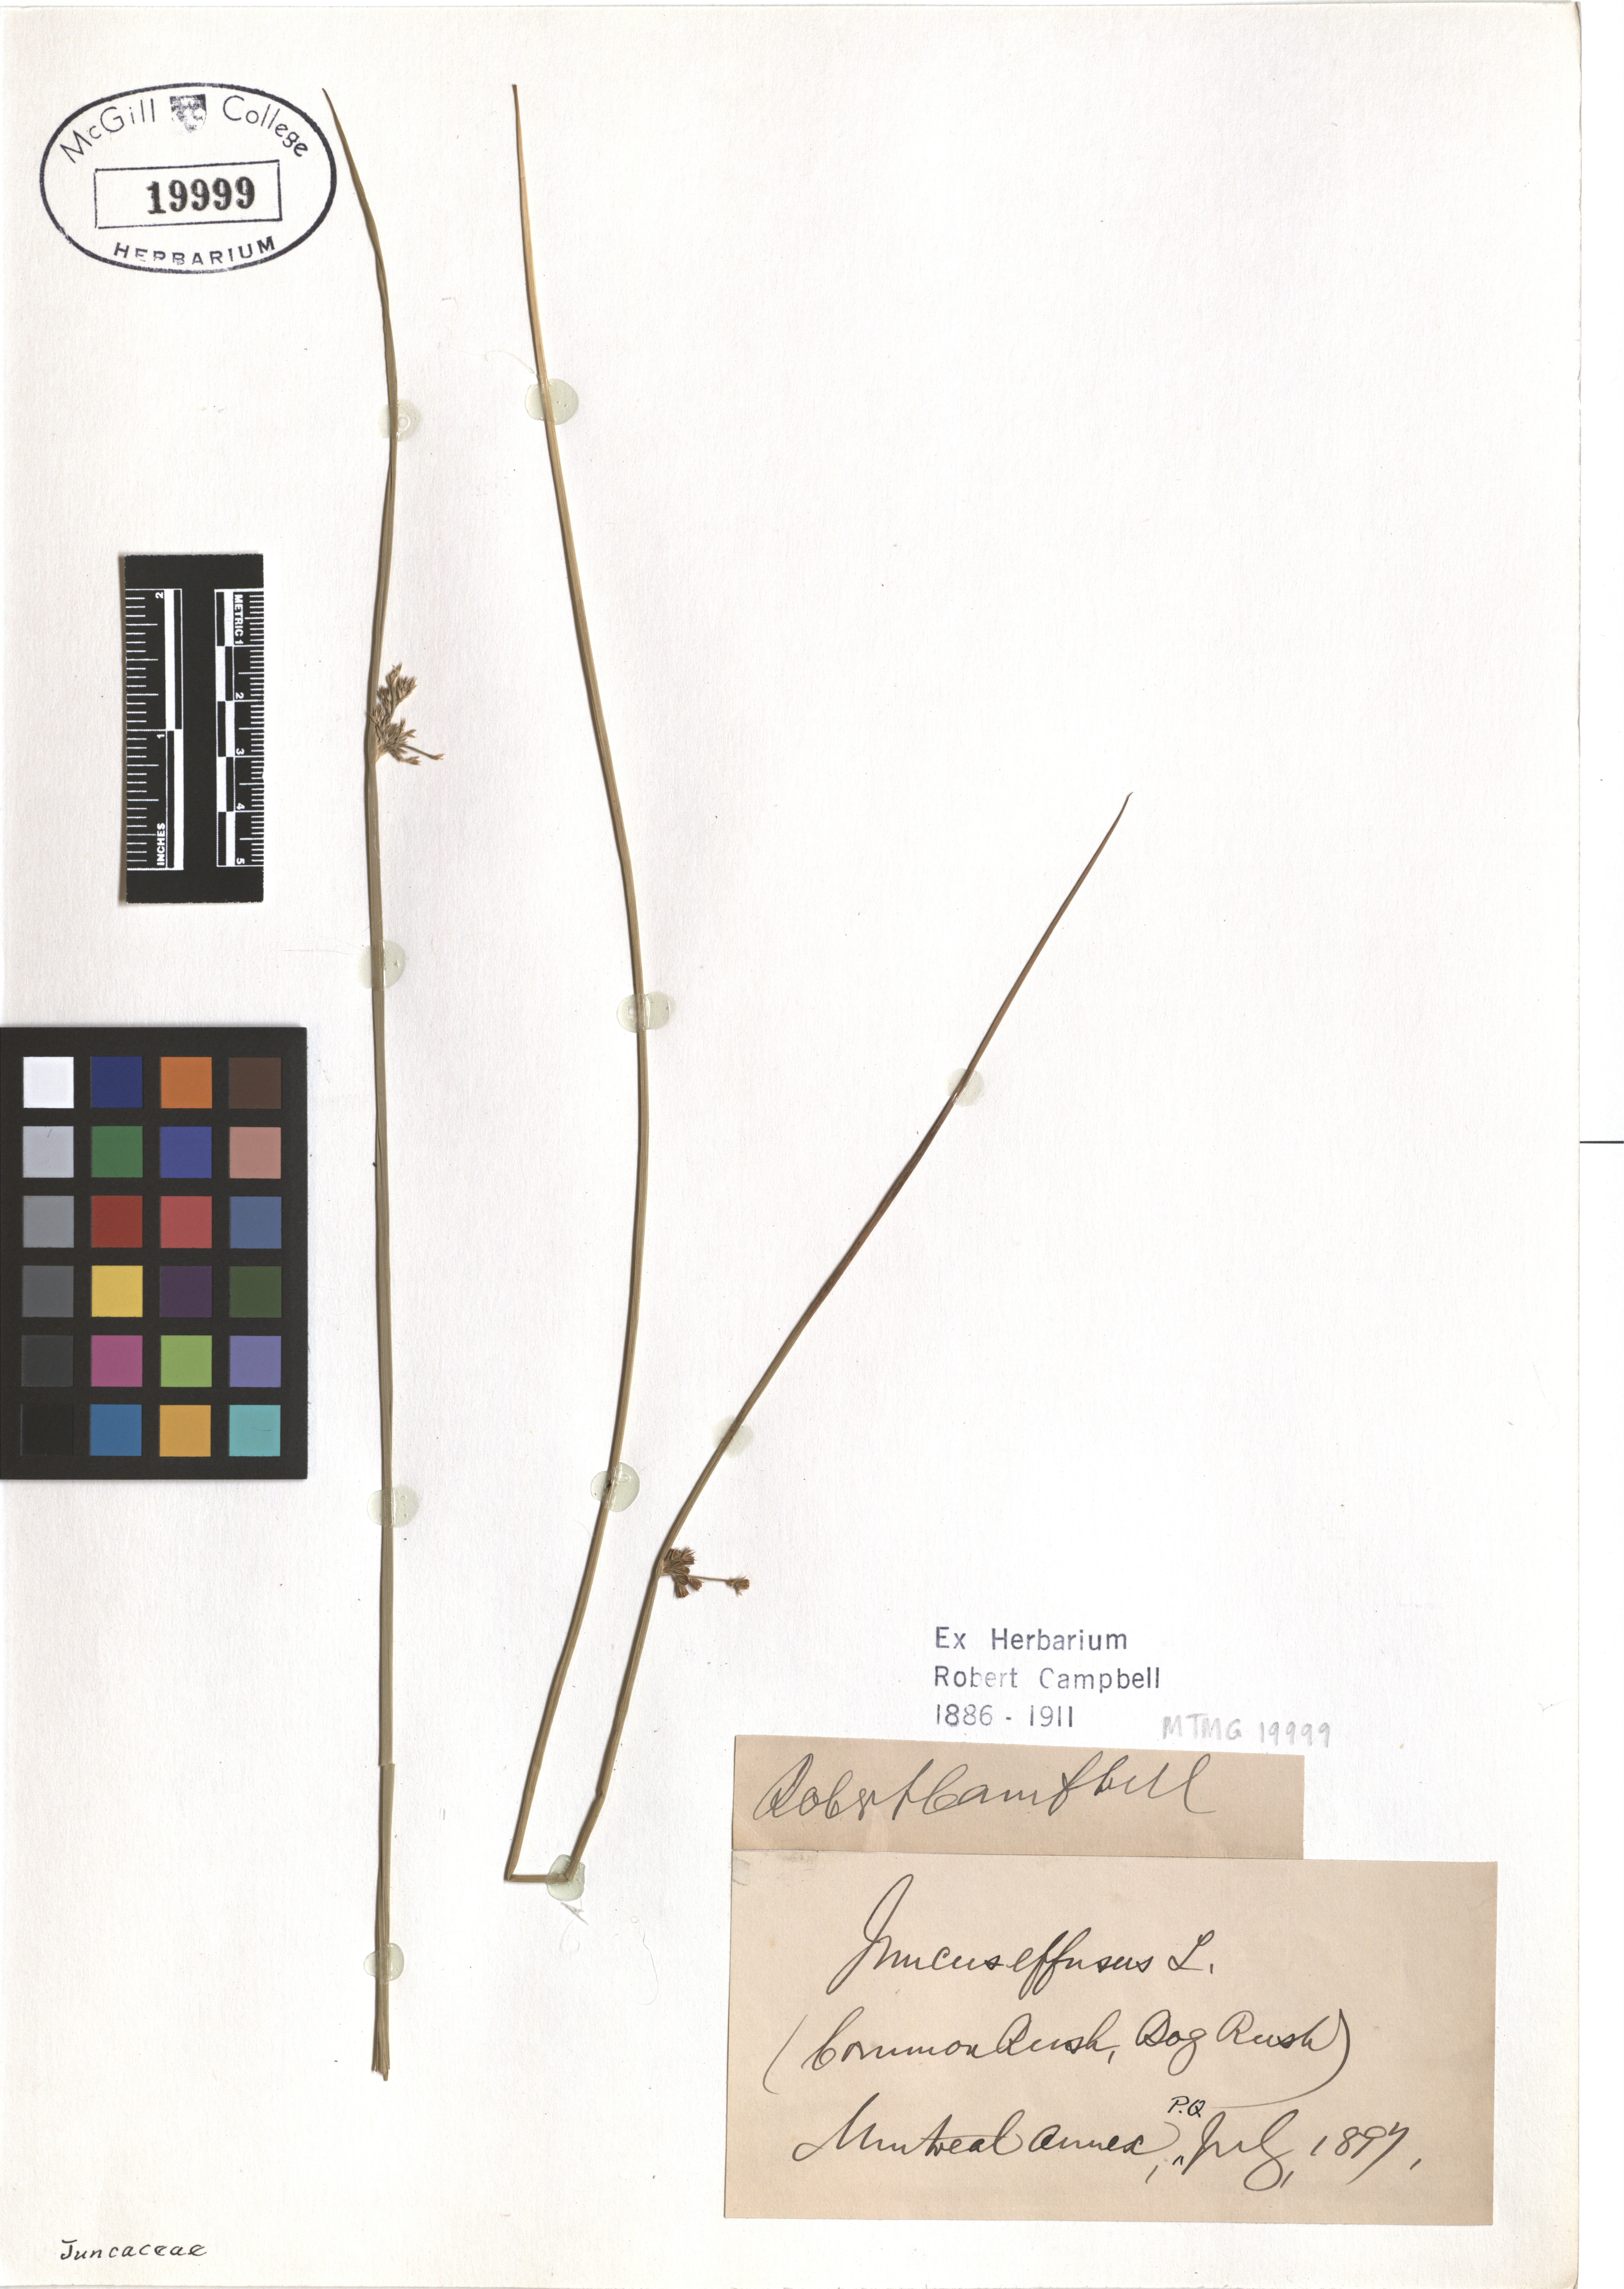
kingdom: Plantae
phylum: Tracheophyta
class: Liliopsida
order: Poales
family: Juncaceae
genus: Juncus
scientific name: Juncus effusus
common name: Soft rush
